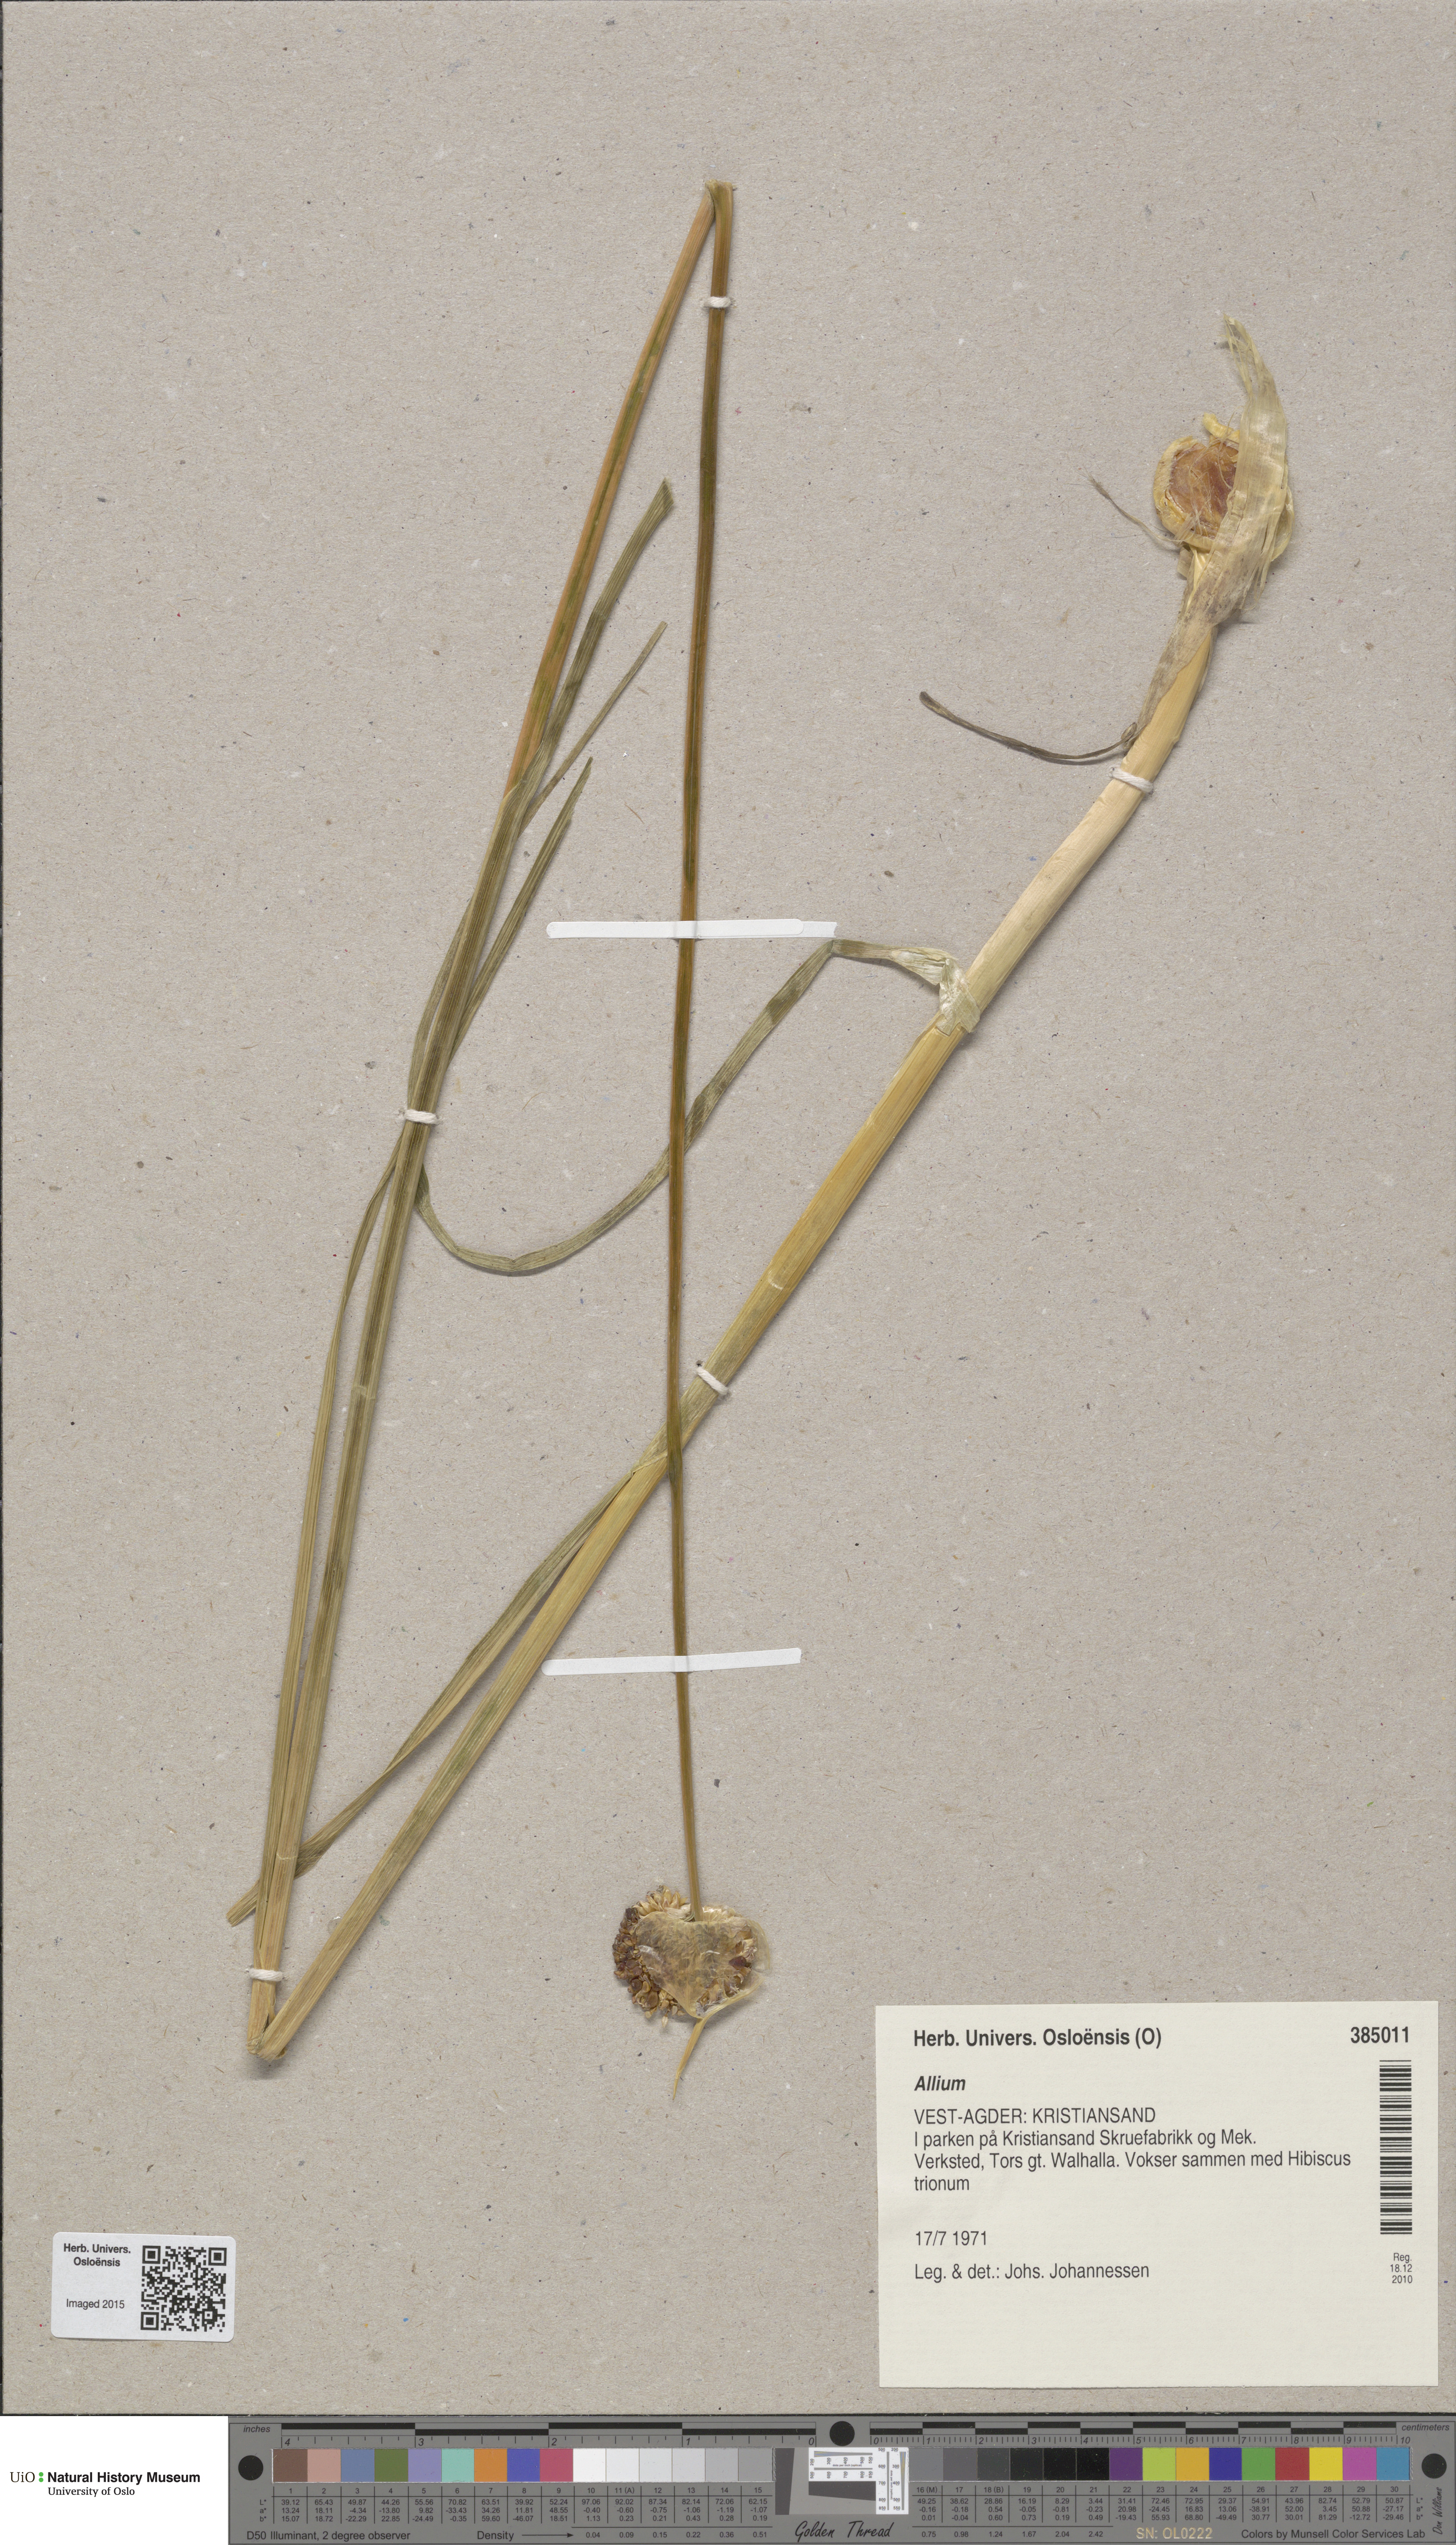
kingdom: Plantae
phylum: Tracheophyta
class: Liliopsida
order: Asparagales
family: Amaryllidaceae
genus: Allium
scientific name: Allium
